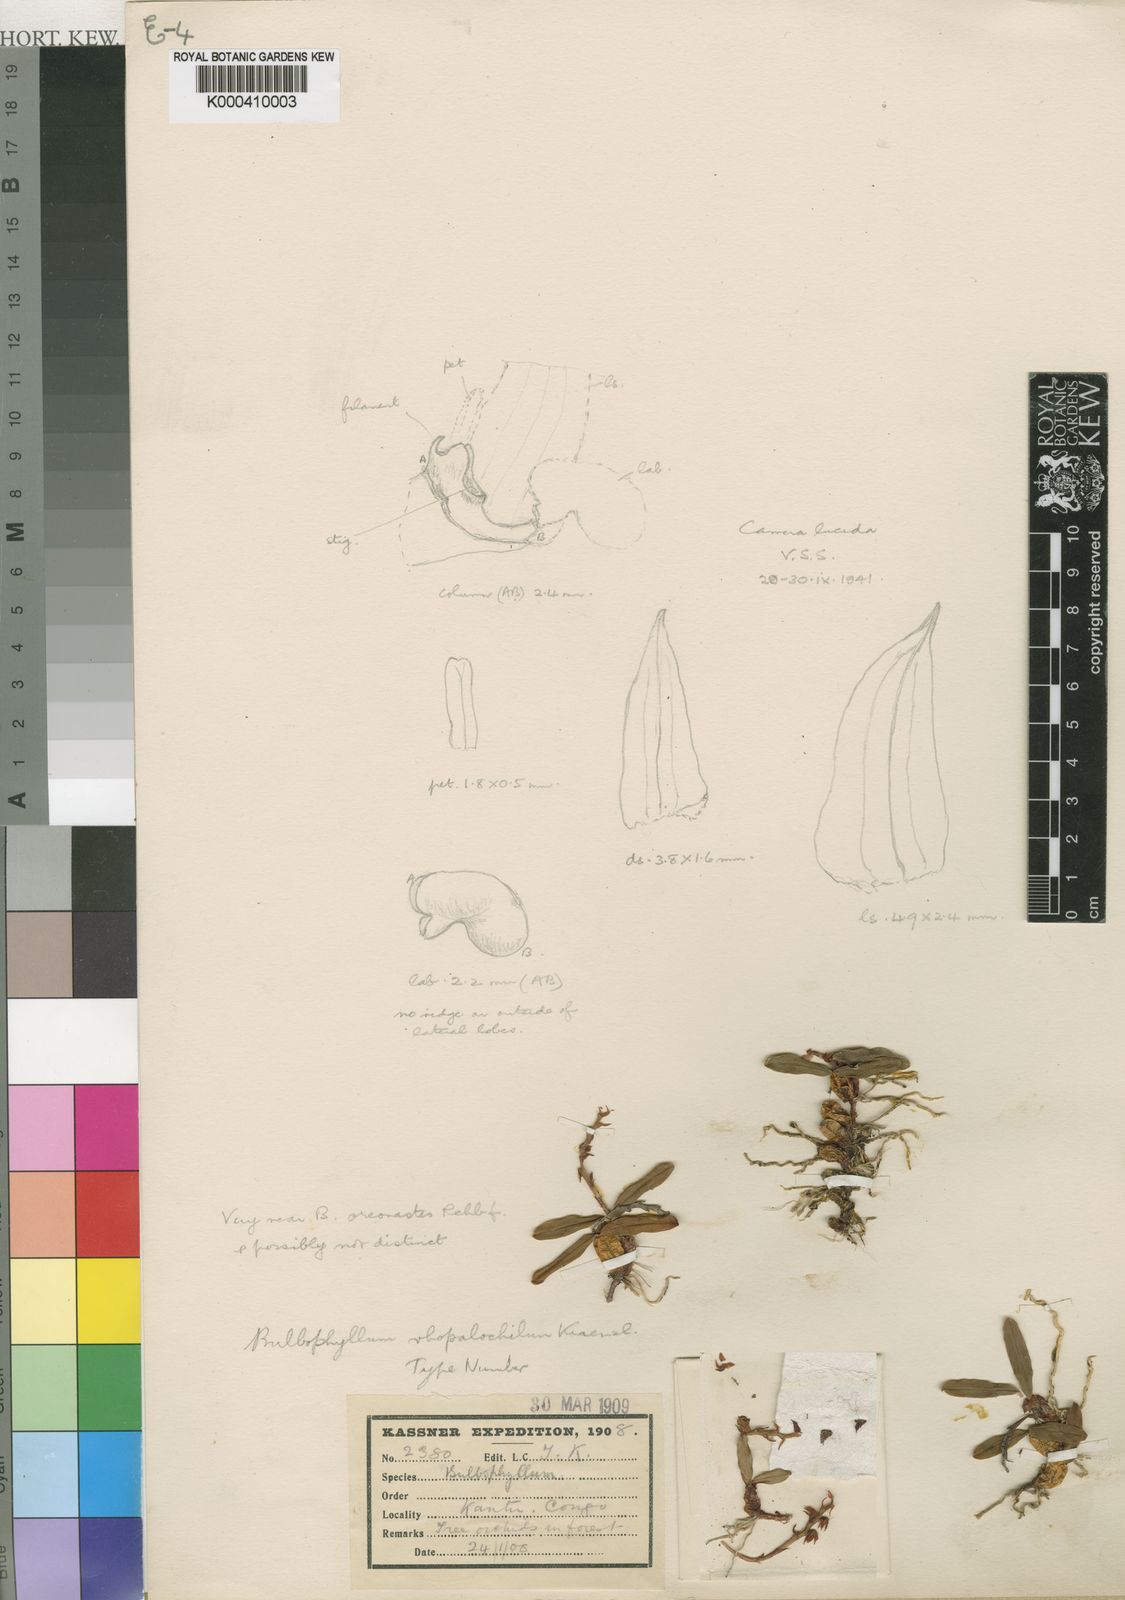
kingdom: Plantae
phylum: Tracheophyta
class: Liliopsida
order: Asparagales
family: Orchidaceae
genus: Bulbophyllum
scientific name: Bulbophyllum oreonastes
